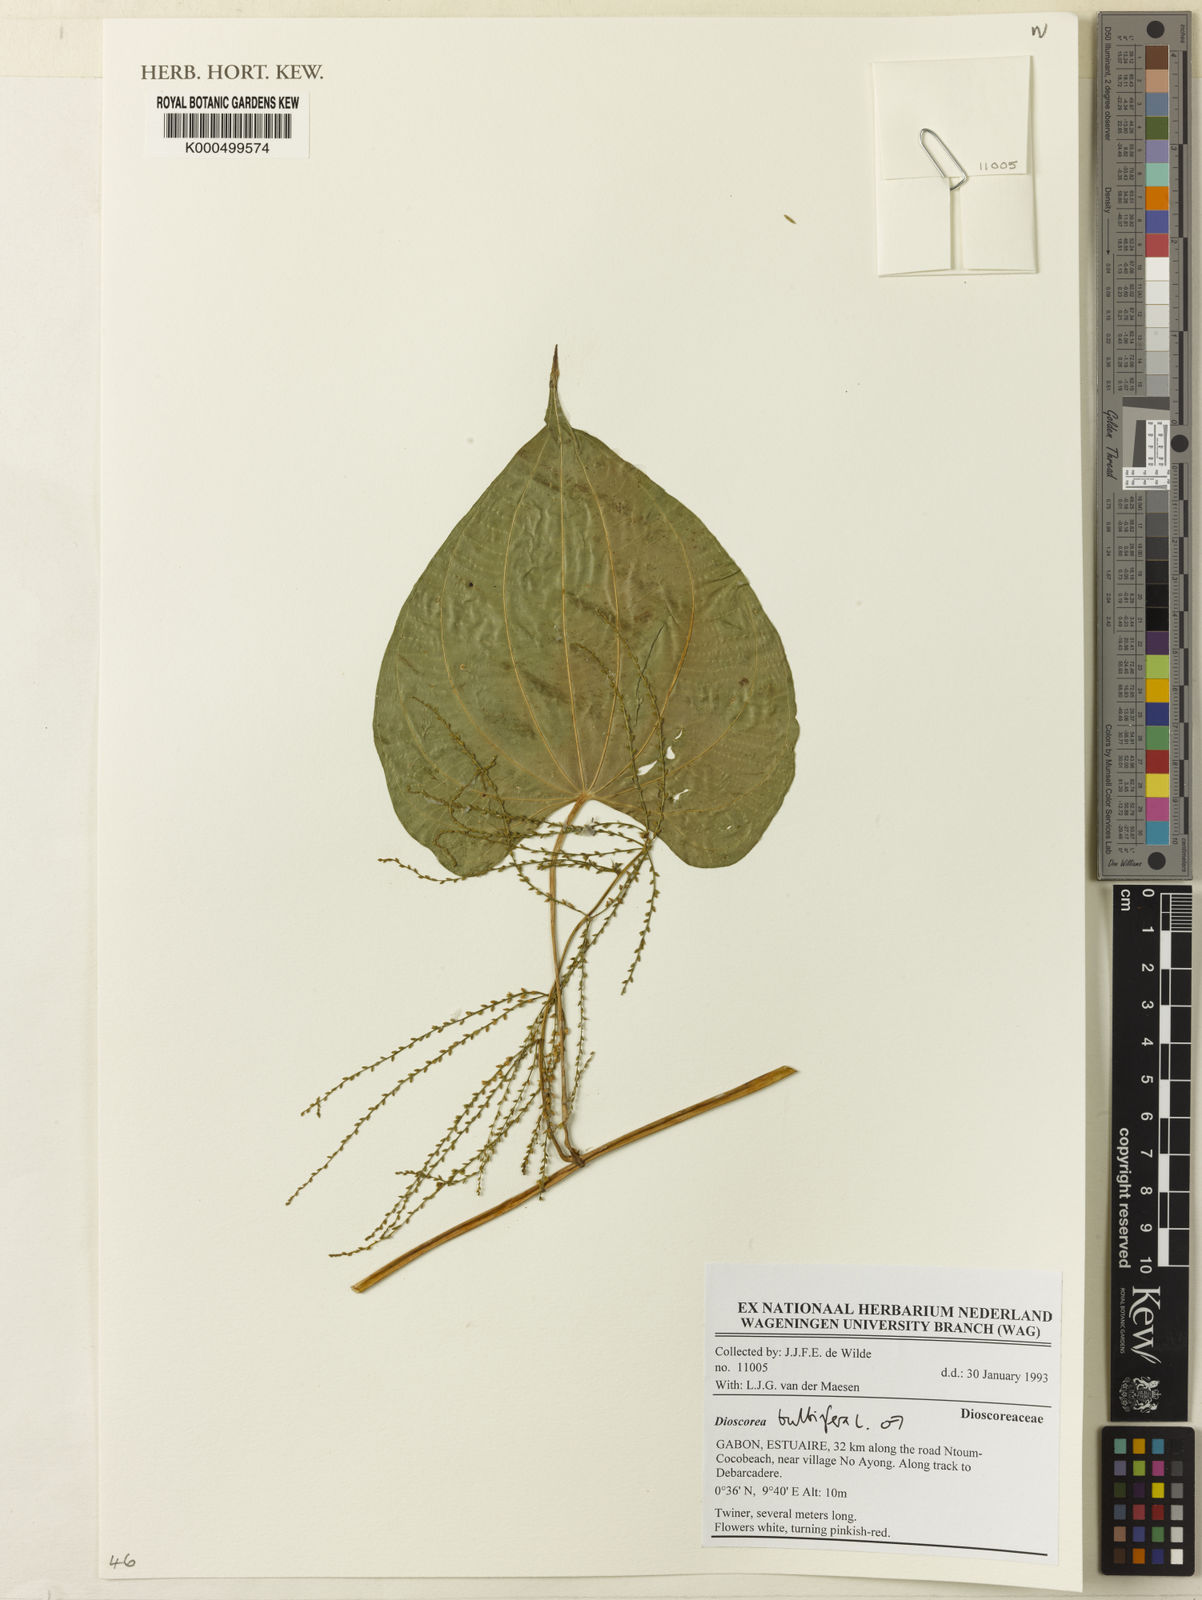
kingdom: Plantae
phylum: Tracheophyta
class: Liliopsida
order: Dioscoreales
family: Dioscoreaceae
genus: Dioscorea
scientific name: Dioscorea bulbifera
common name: Air yam
